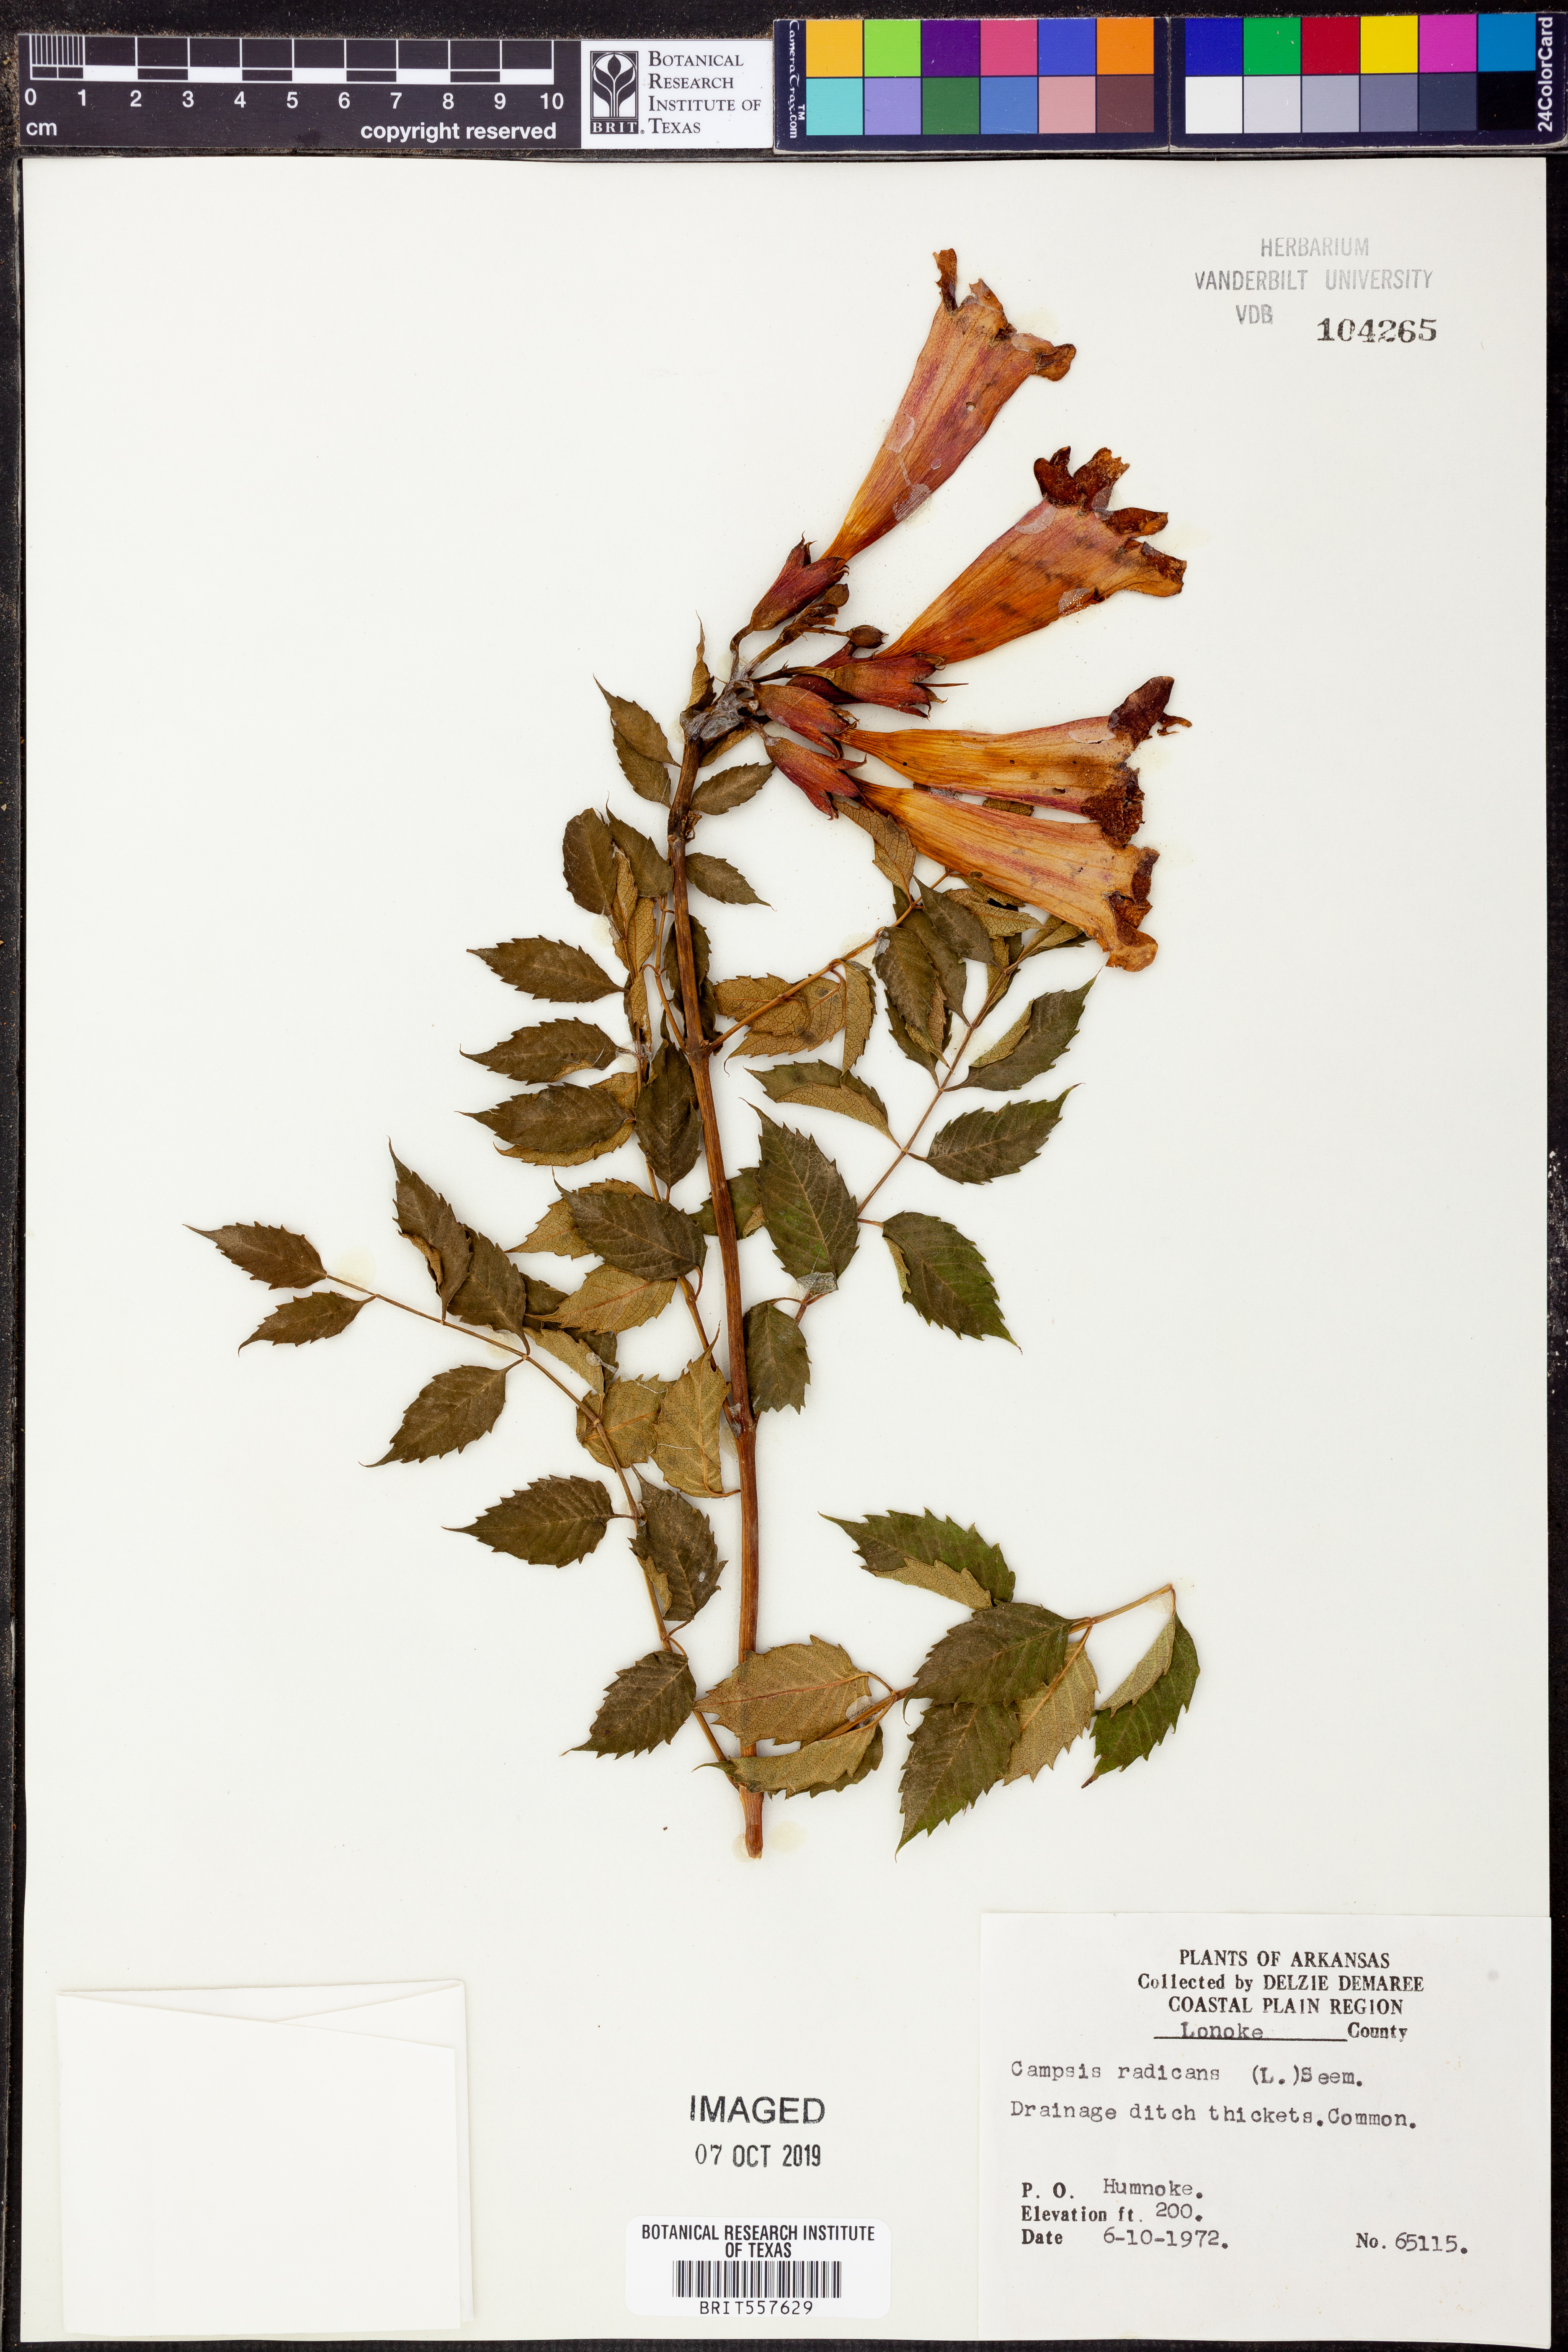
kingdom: Plantae
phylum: Tracheophyta
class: Magnoliopsida
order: Lamiales
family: Bignoniaceae
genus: Campsis
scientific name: Campsis radicans
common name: Trumpet-creeper
